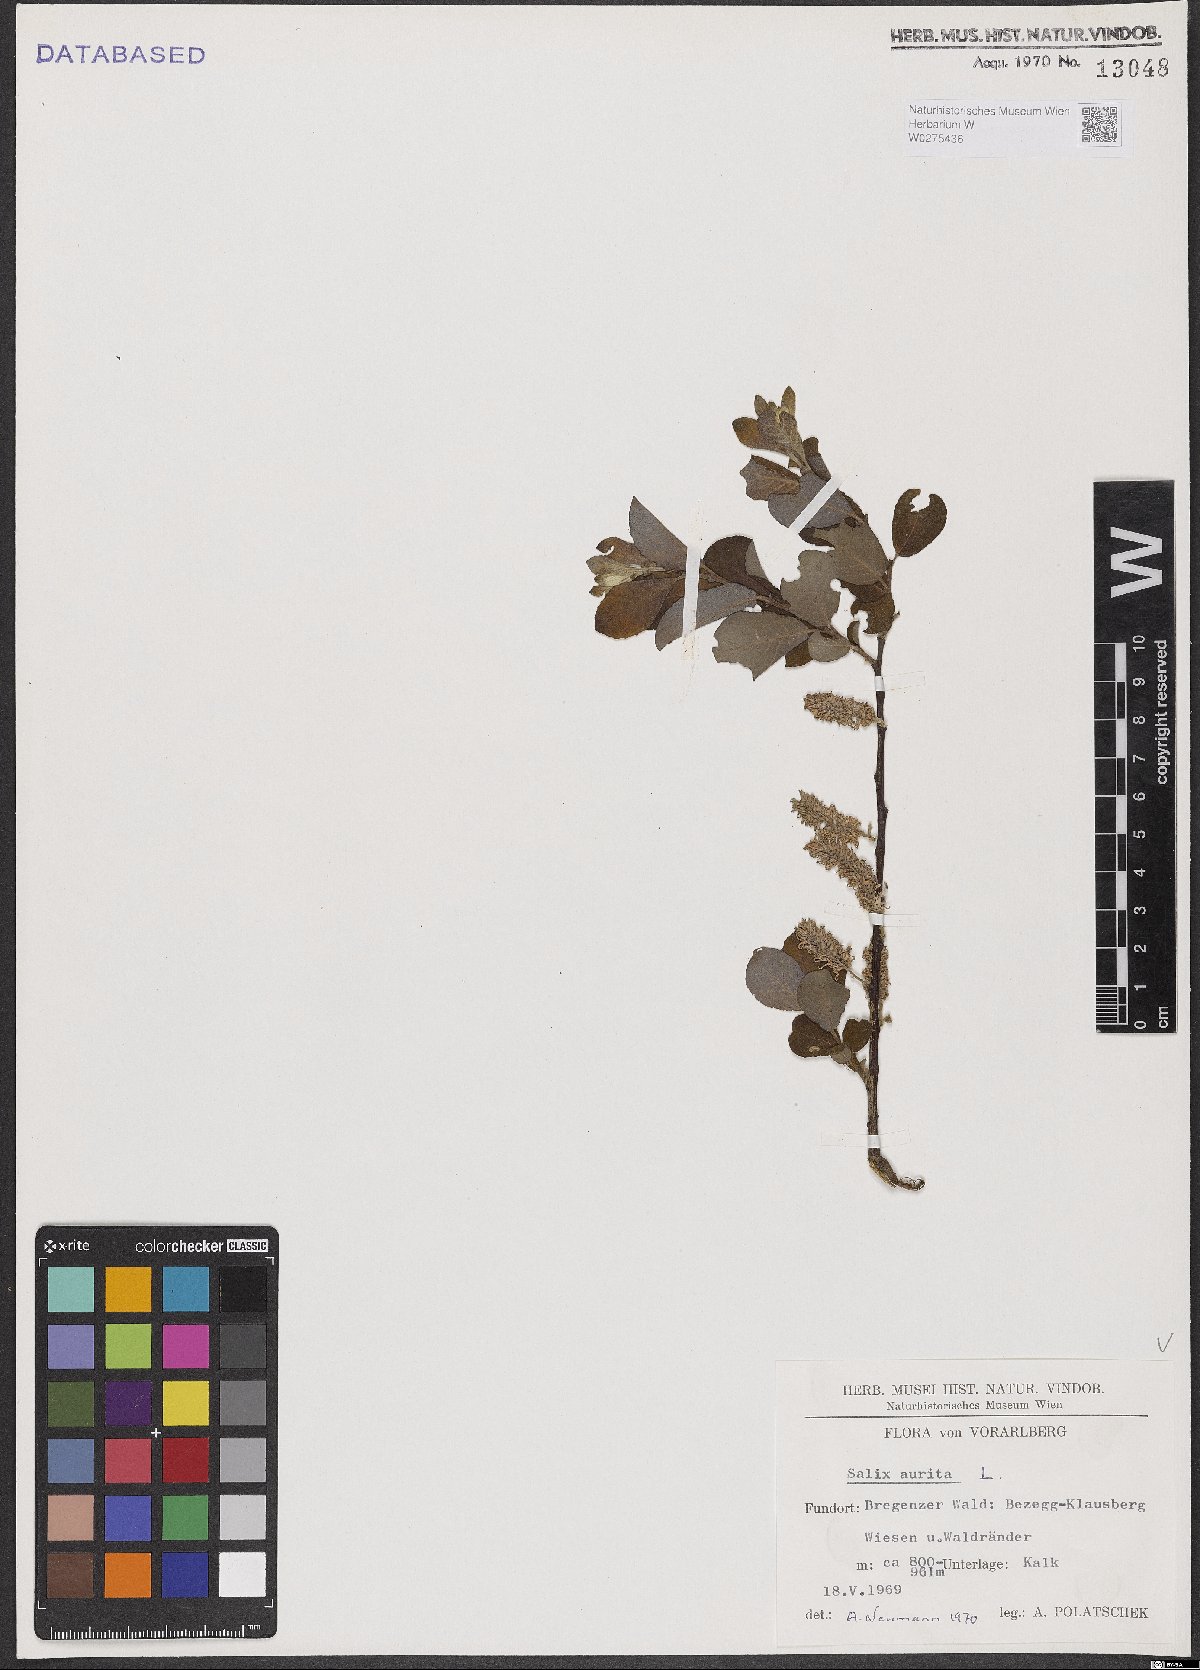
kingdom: Plantae
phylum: Tracheophyta
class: Magnoliopsida
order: Malpighiales
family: Salicaceae
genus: Salix
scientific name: Salix aurita
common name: Eared willow
